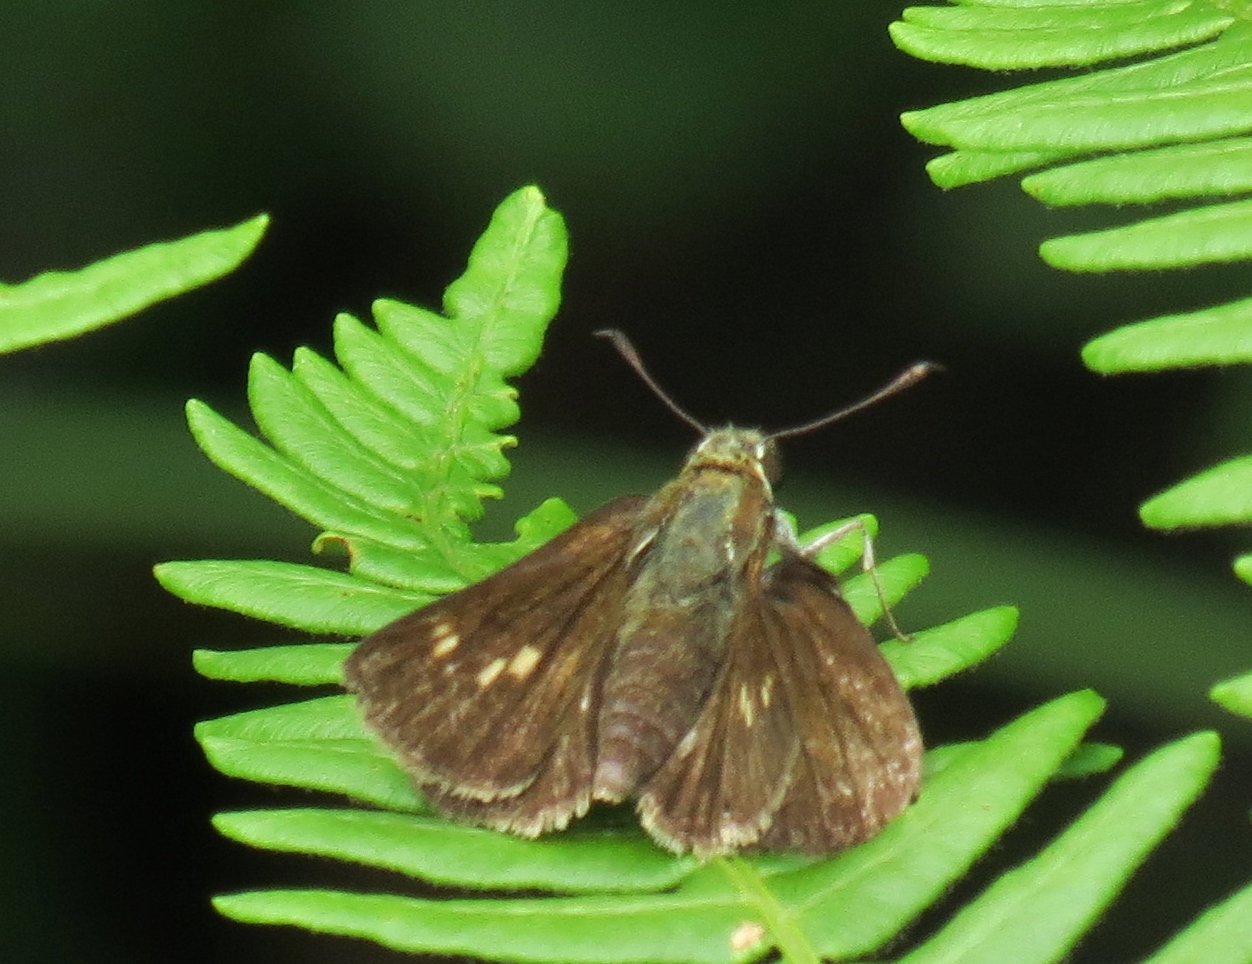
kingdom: Animalia
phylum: Arthropoda
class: Insecta
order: Lepidoptera
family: Hesperiidae
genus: Polites
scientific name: Polites egeremet
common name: Northern Broken-Dash
